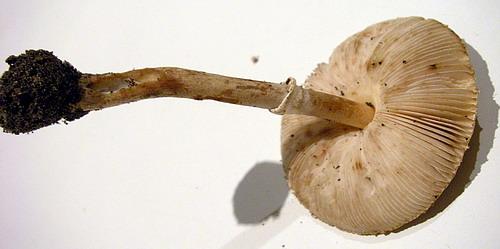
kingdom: Fungi
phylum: Basidiomycota
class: Agaricomycetes
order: Agaricales
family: Agaricaceae
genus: Macrolepiota
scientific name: Macrolepiota mastoidea
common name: puklet kæmpeparasolhat
